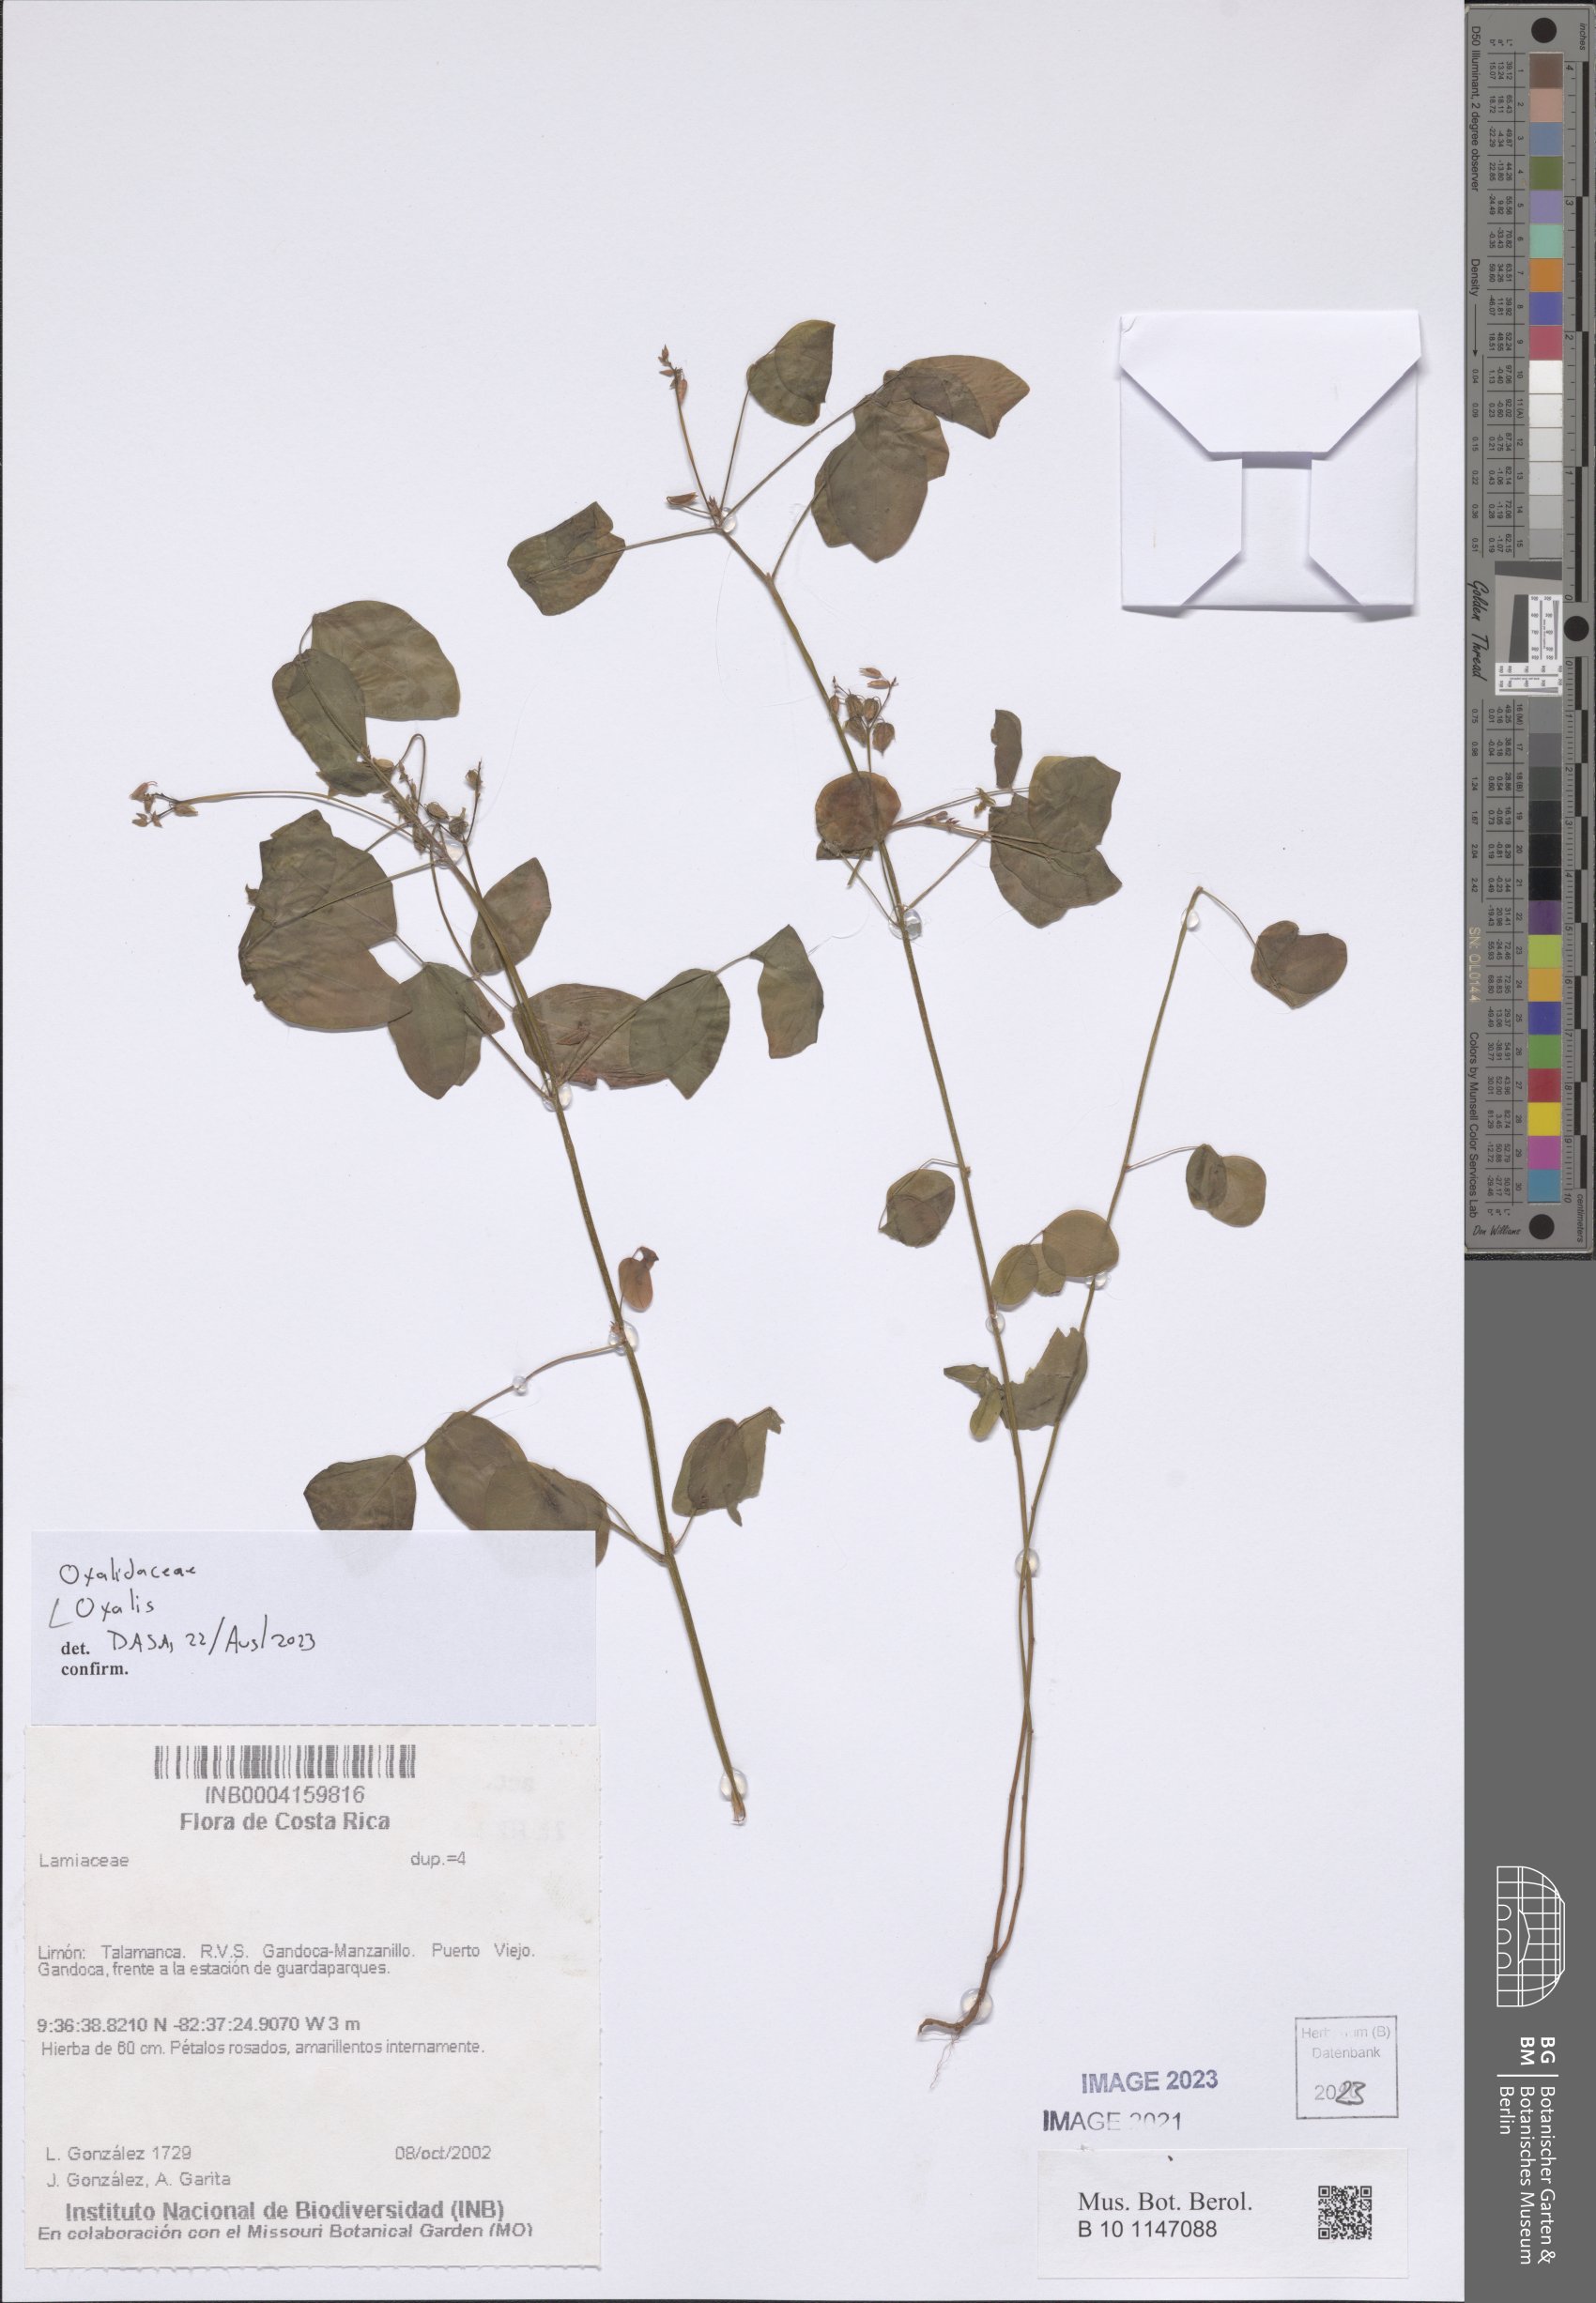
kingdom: Plantae
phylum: Tracheophyta
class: Magnoliopsida
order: Oxalidales
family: Oxalidaceae
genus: Oxalis
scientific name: Oxalis
